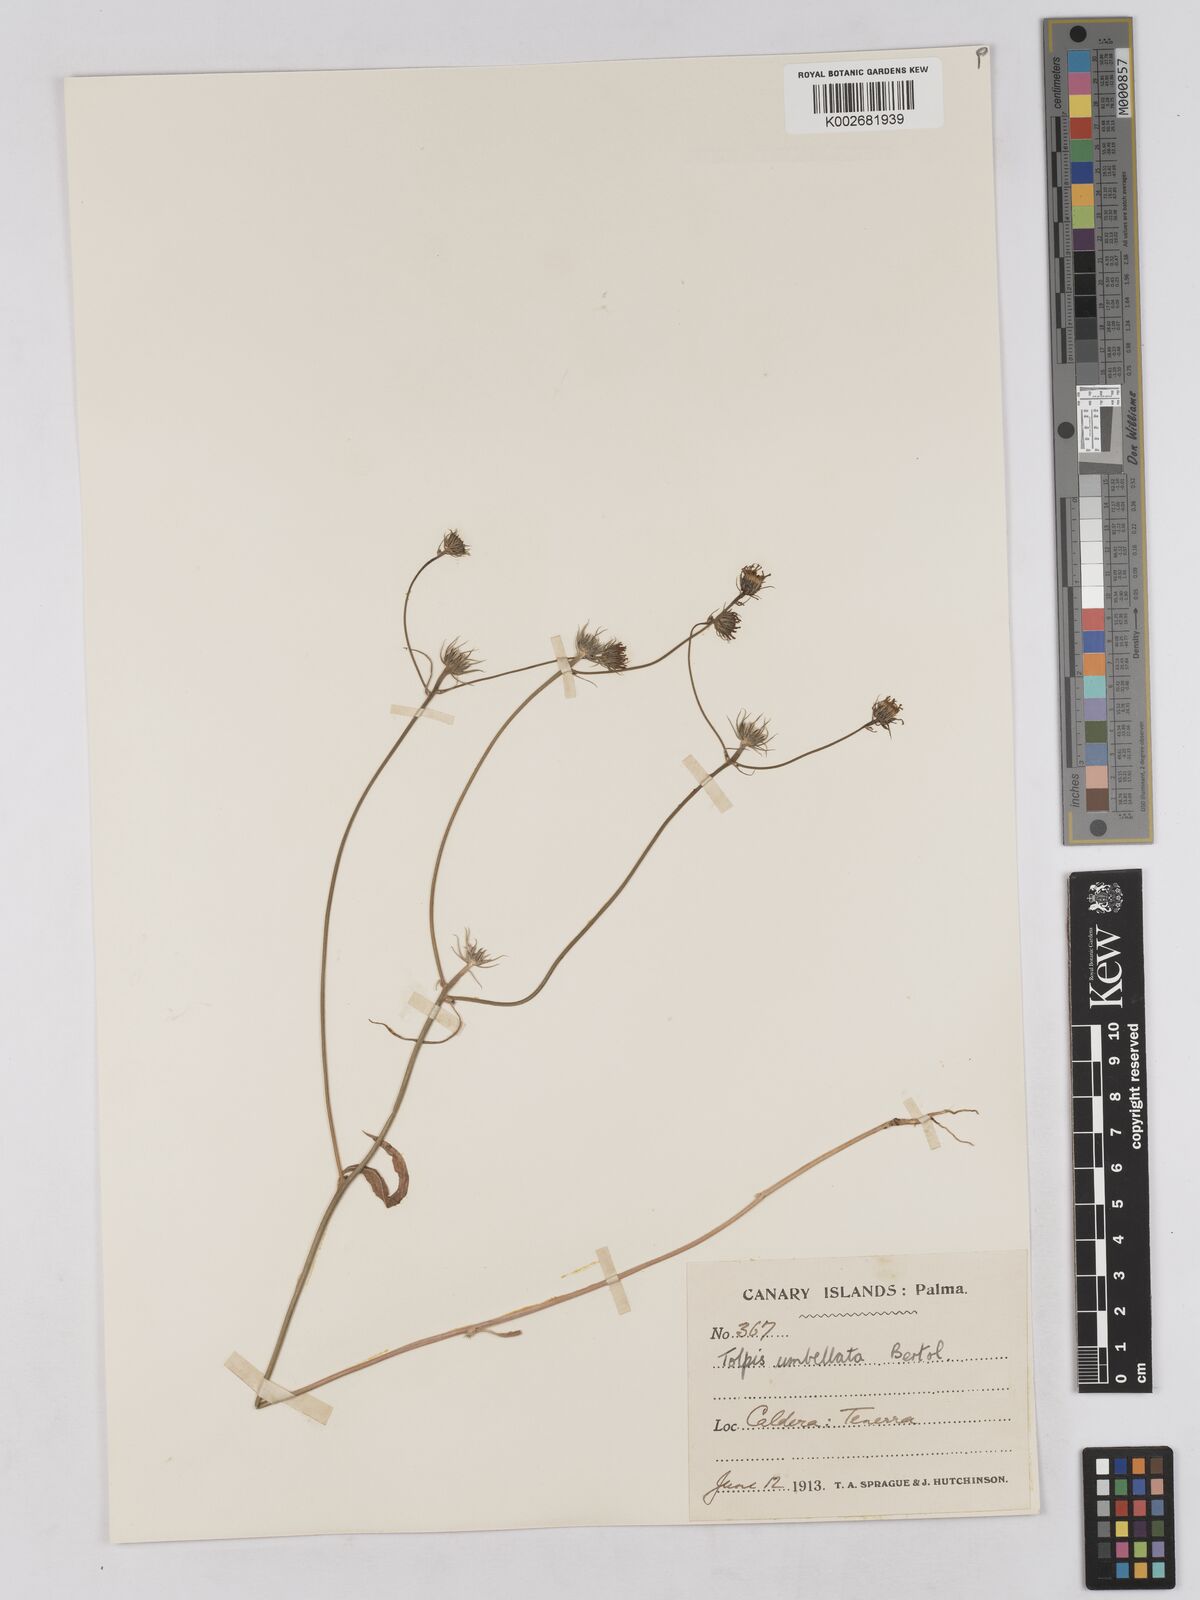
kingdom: Plantae
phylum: Tracheophyta
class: Magnoliopsida
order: Asterales
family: Asteraceae
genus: Tolpis
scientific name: Tolpis umbellata
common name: Yellow hawkweed
